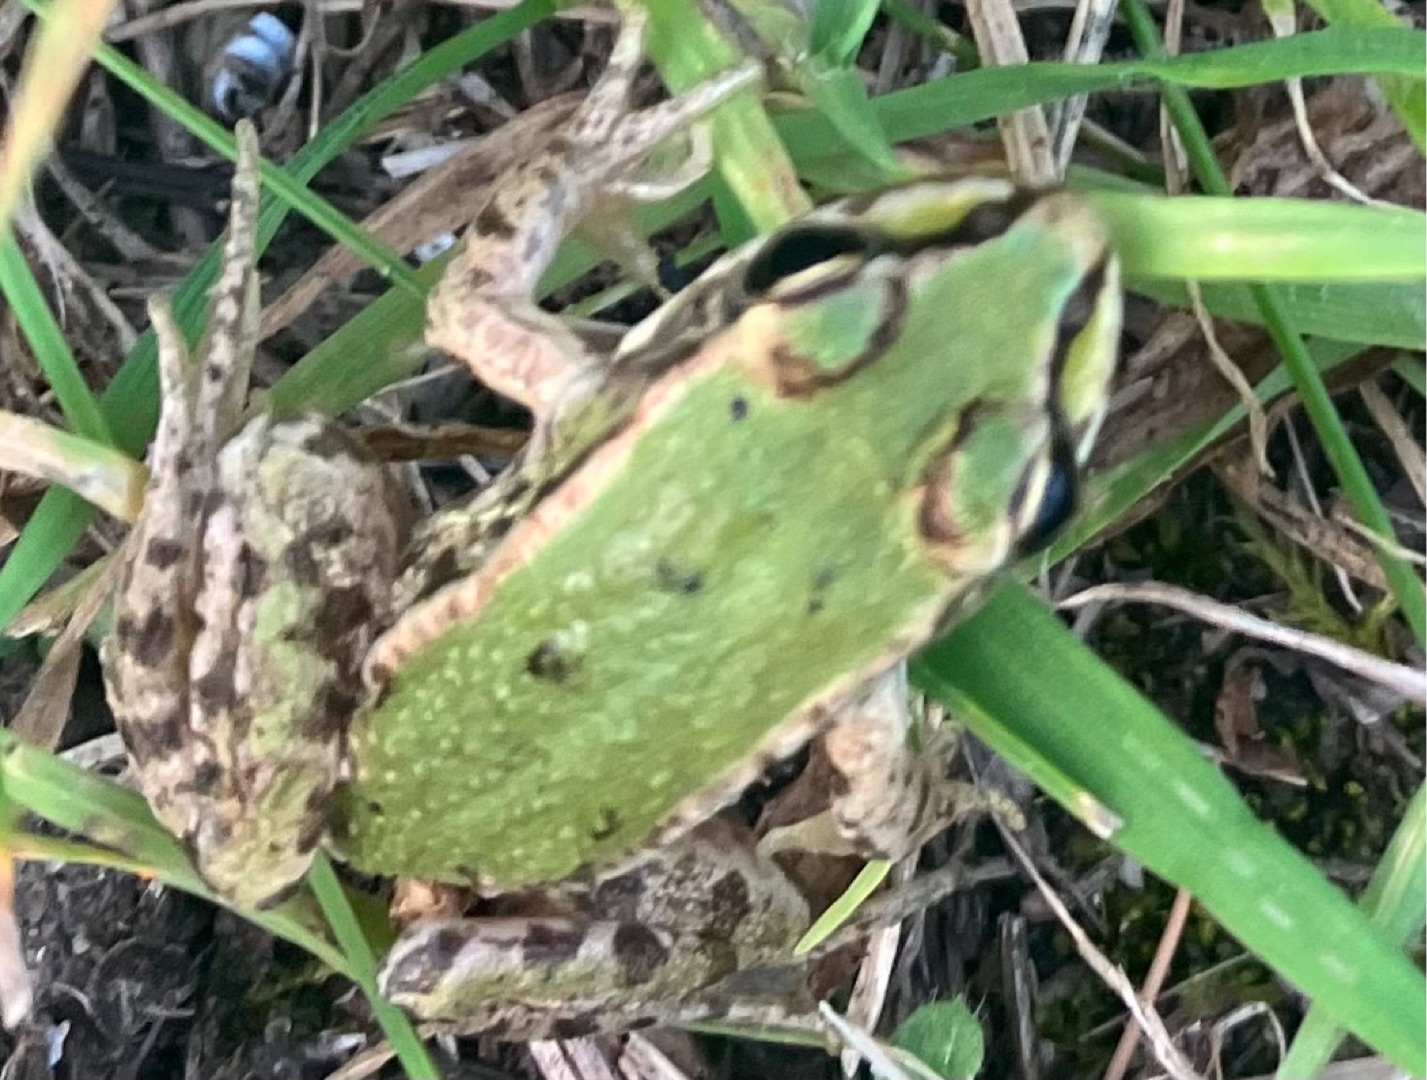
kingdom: Animalia
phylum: Chordata
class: Amphibia
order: Anura
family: Ranidae
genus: Pelophylax
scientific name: Pelophylax lessonae
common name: Grøn frø
